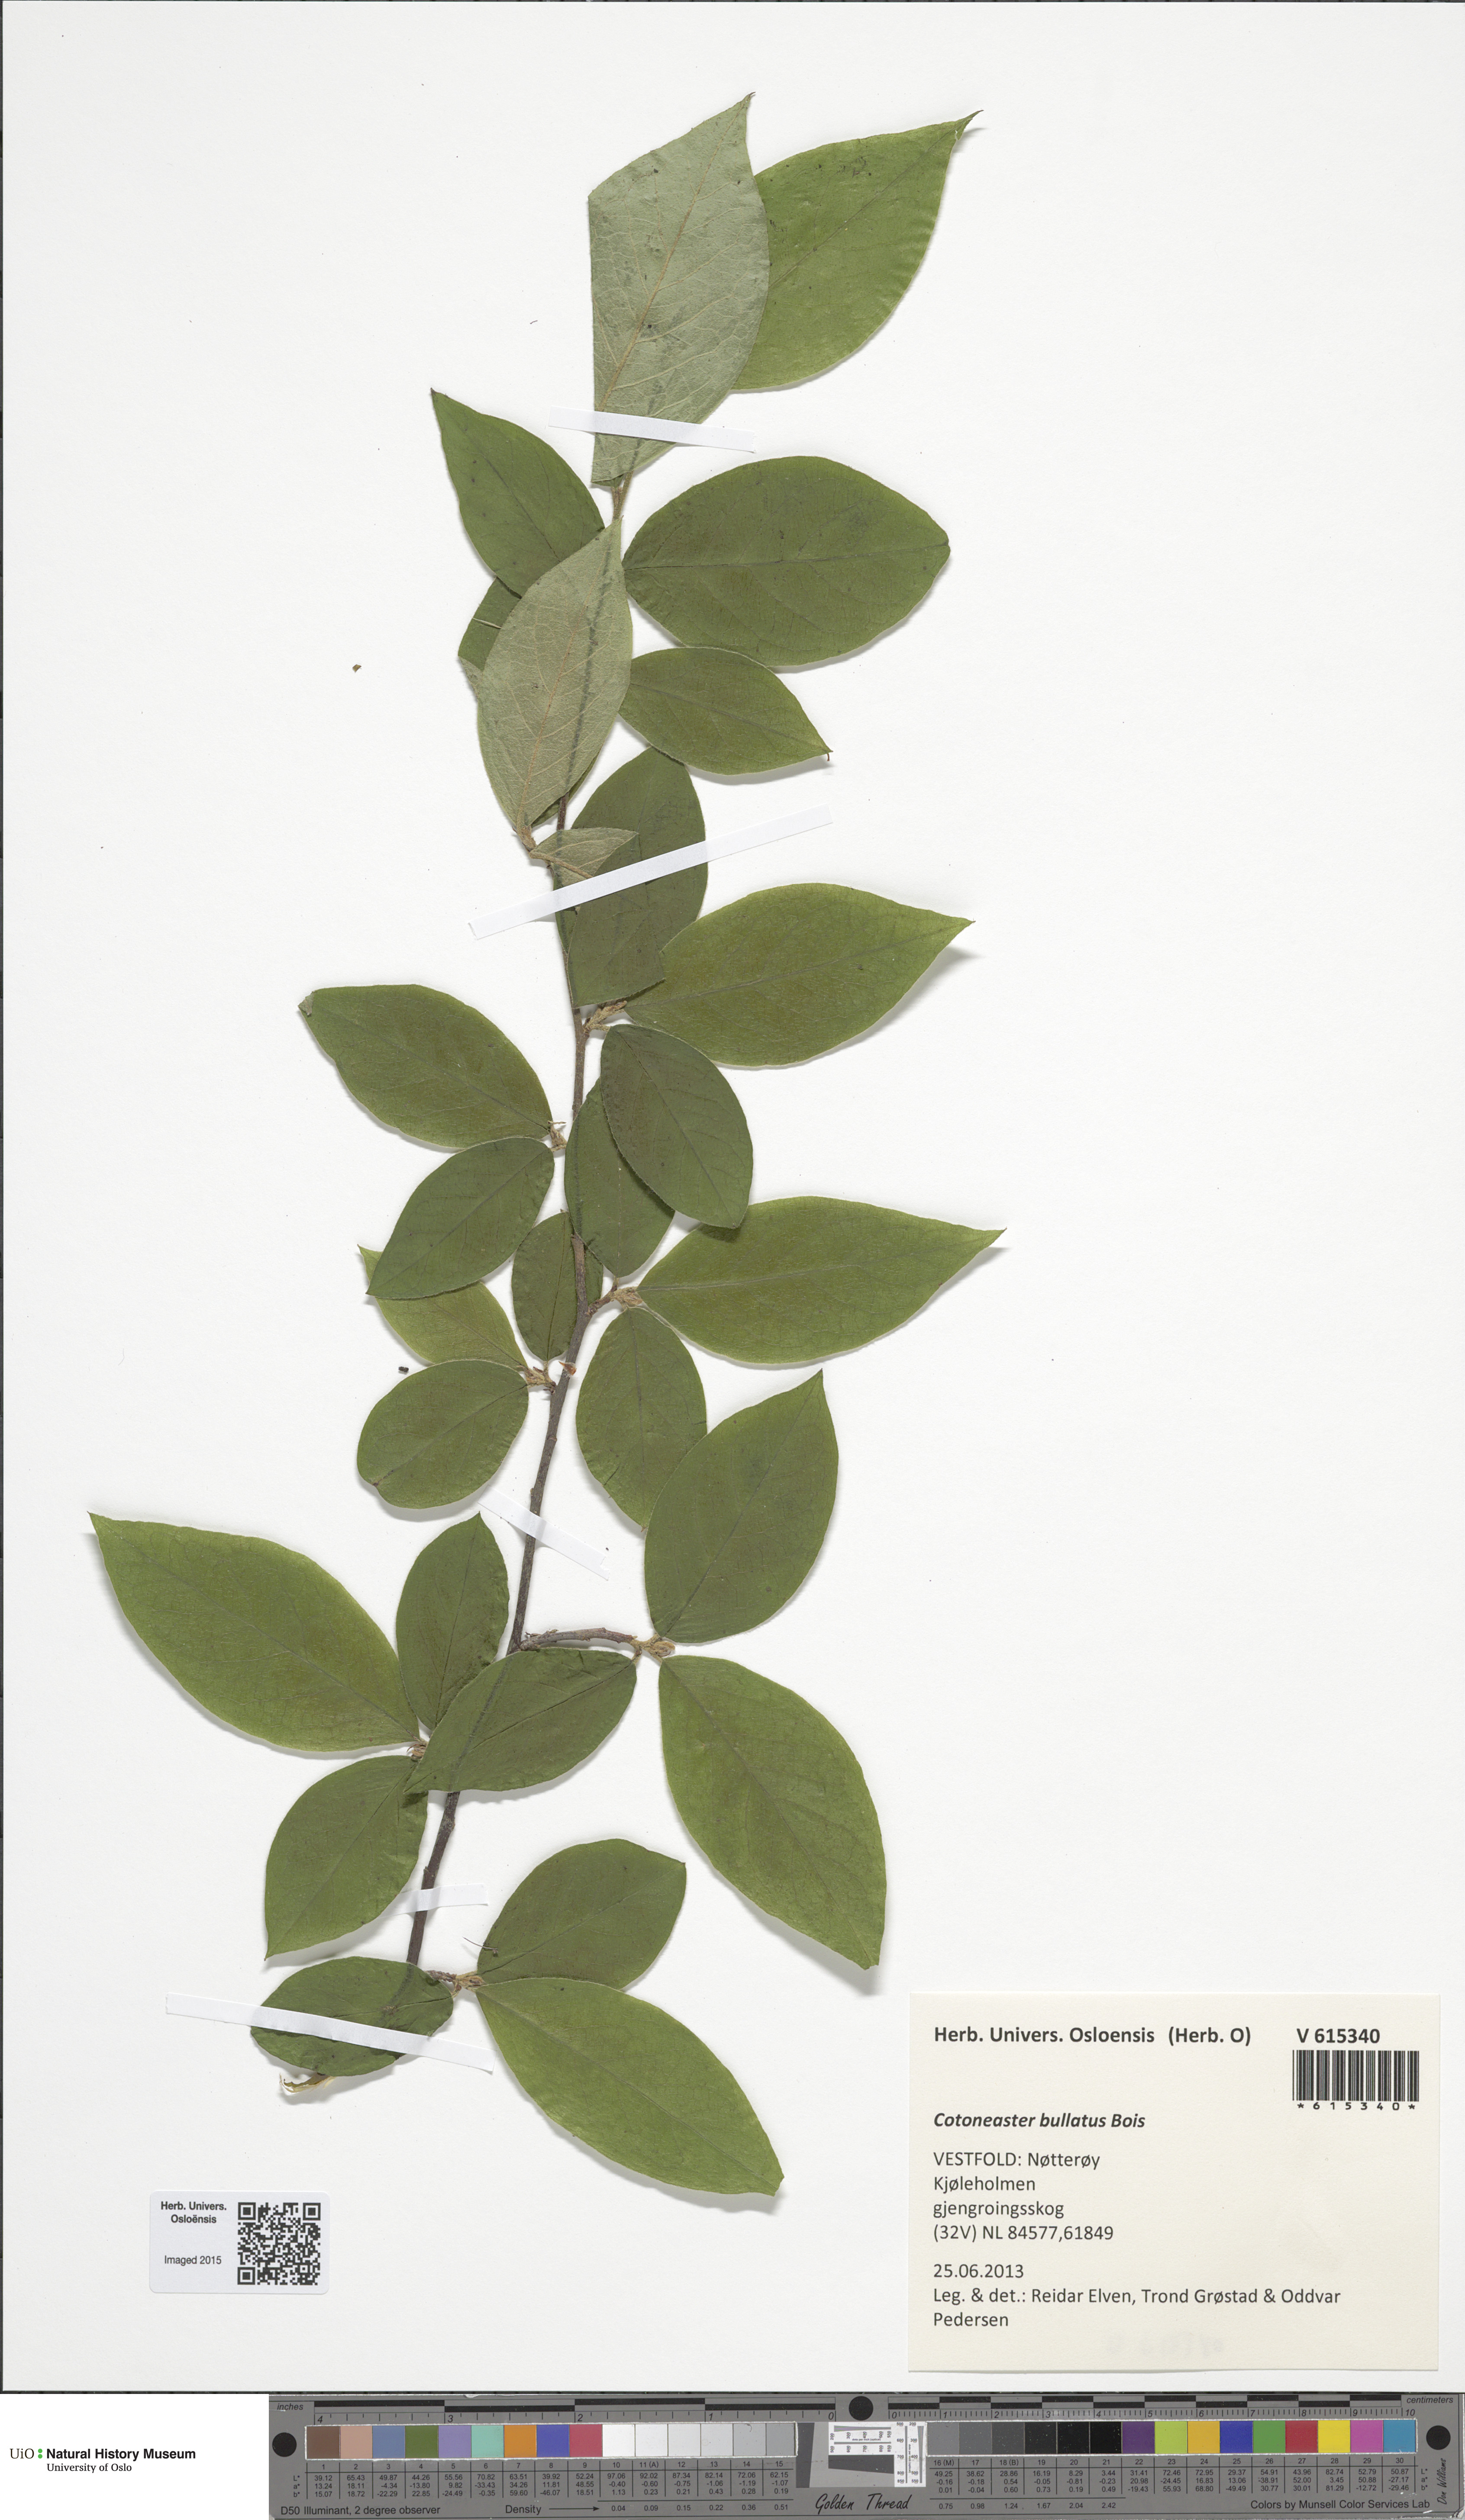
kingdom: Plantae
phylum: Tracheophyta
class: Magnoliopsida
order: Rosales
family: Rosaceae
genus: Cotoneaster
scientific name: Cotoneaster bullatus
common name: Hollyberry cotoneaster
